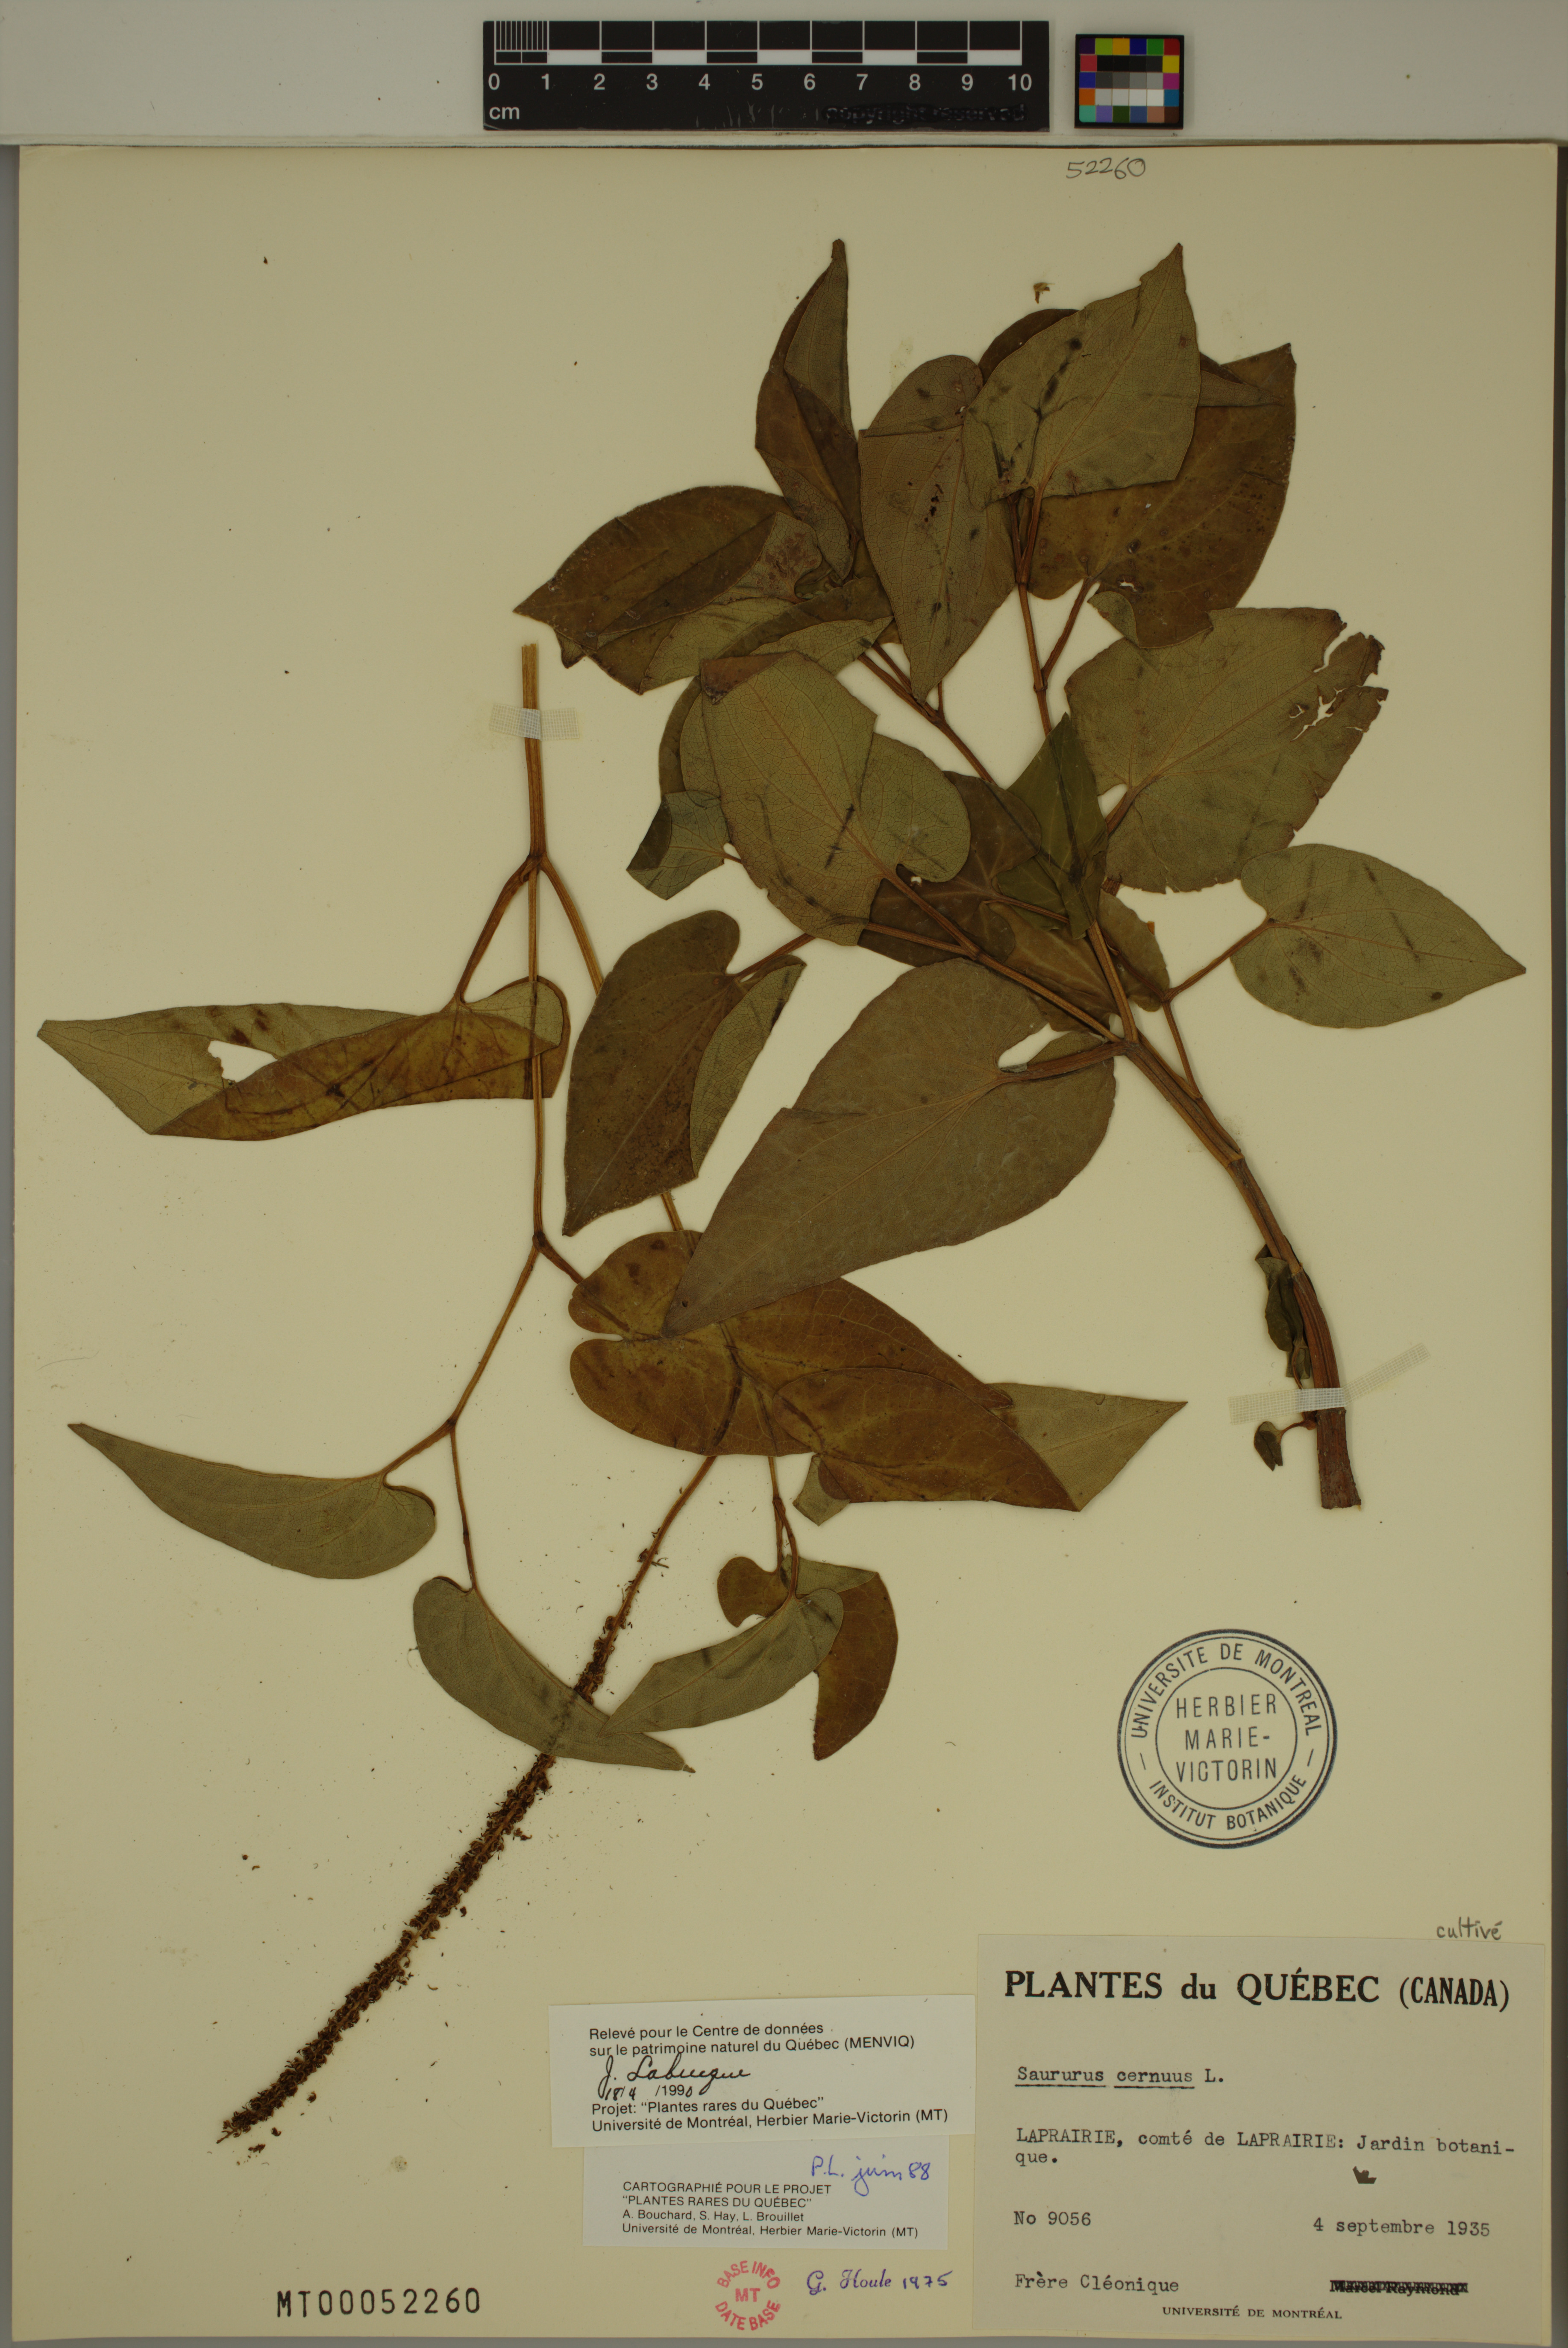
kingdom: Plantae
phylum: Tracheophyta
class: Magnoliopsida
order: Piperales
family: Saururaceae
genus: Saururus
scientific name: Saururus cernuus
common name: Lizard's-tail
